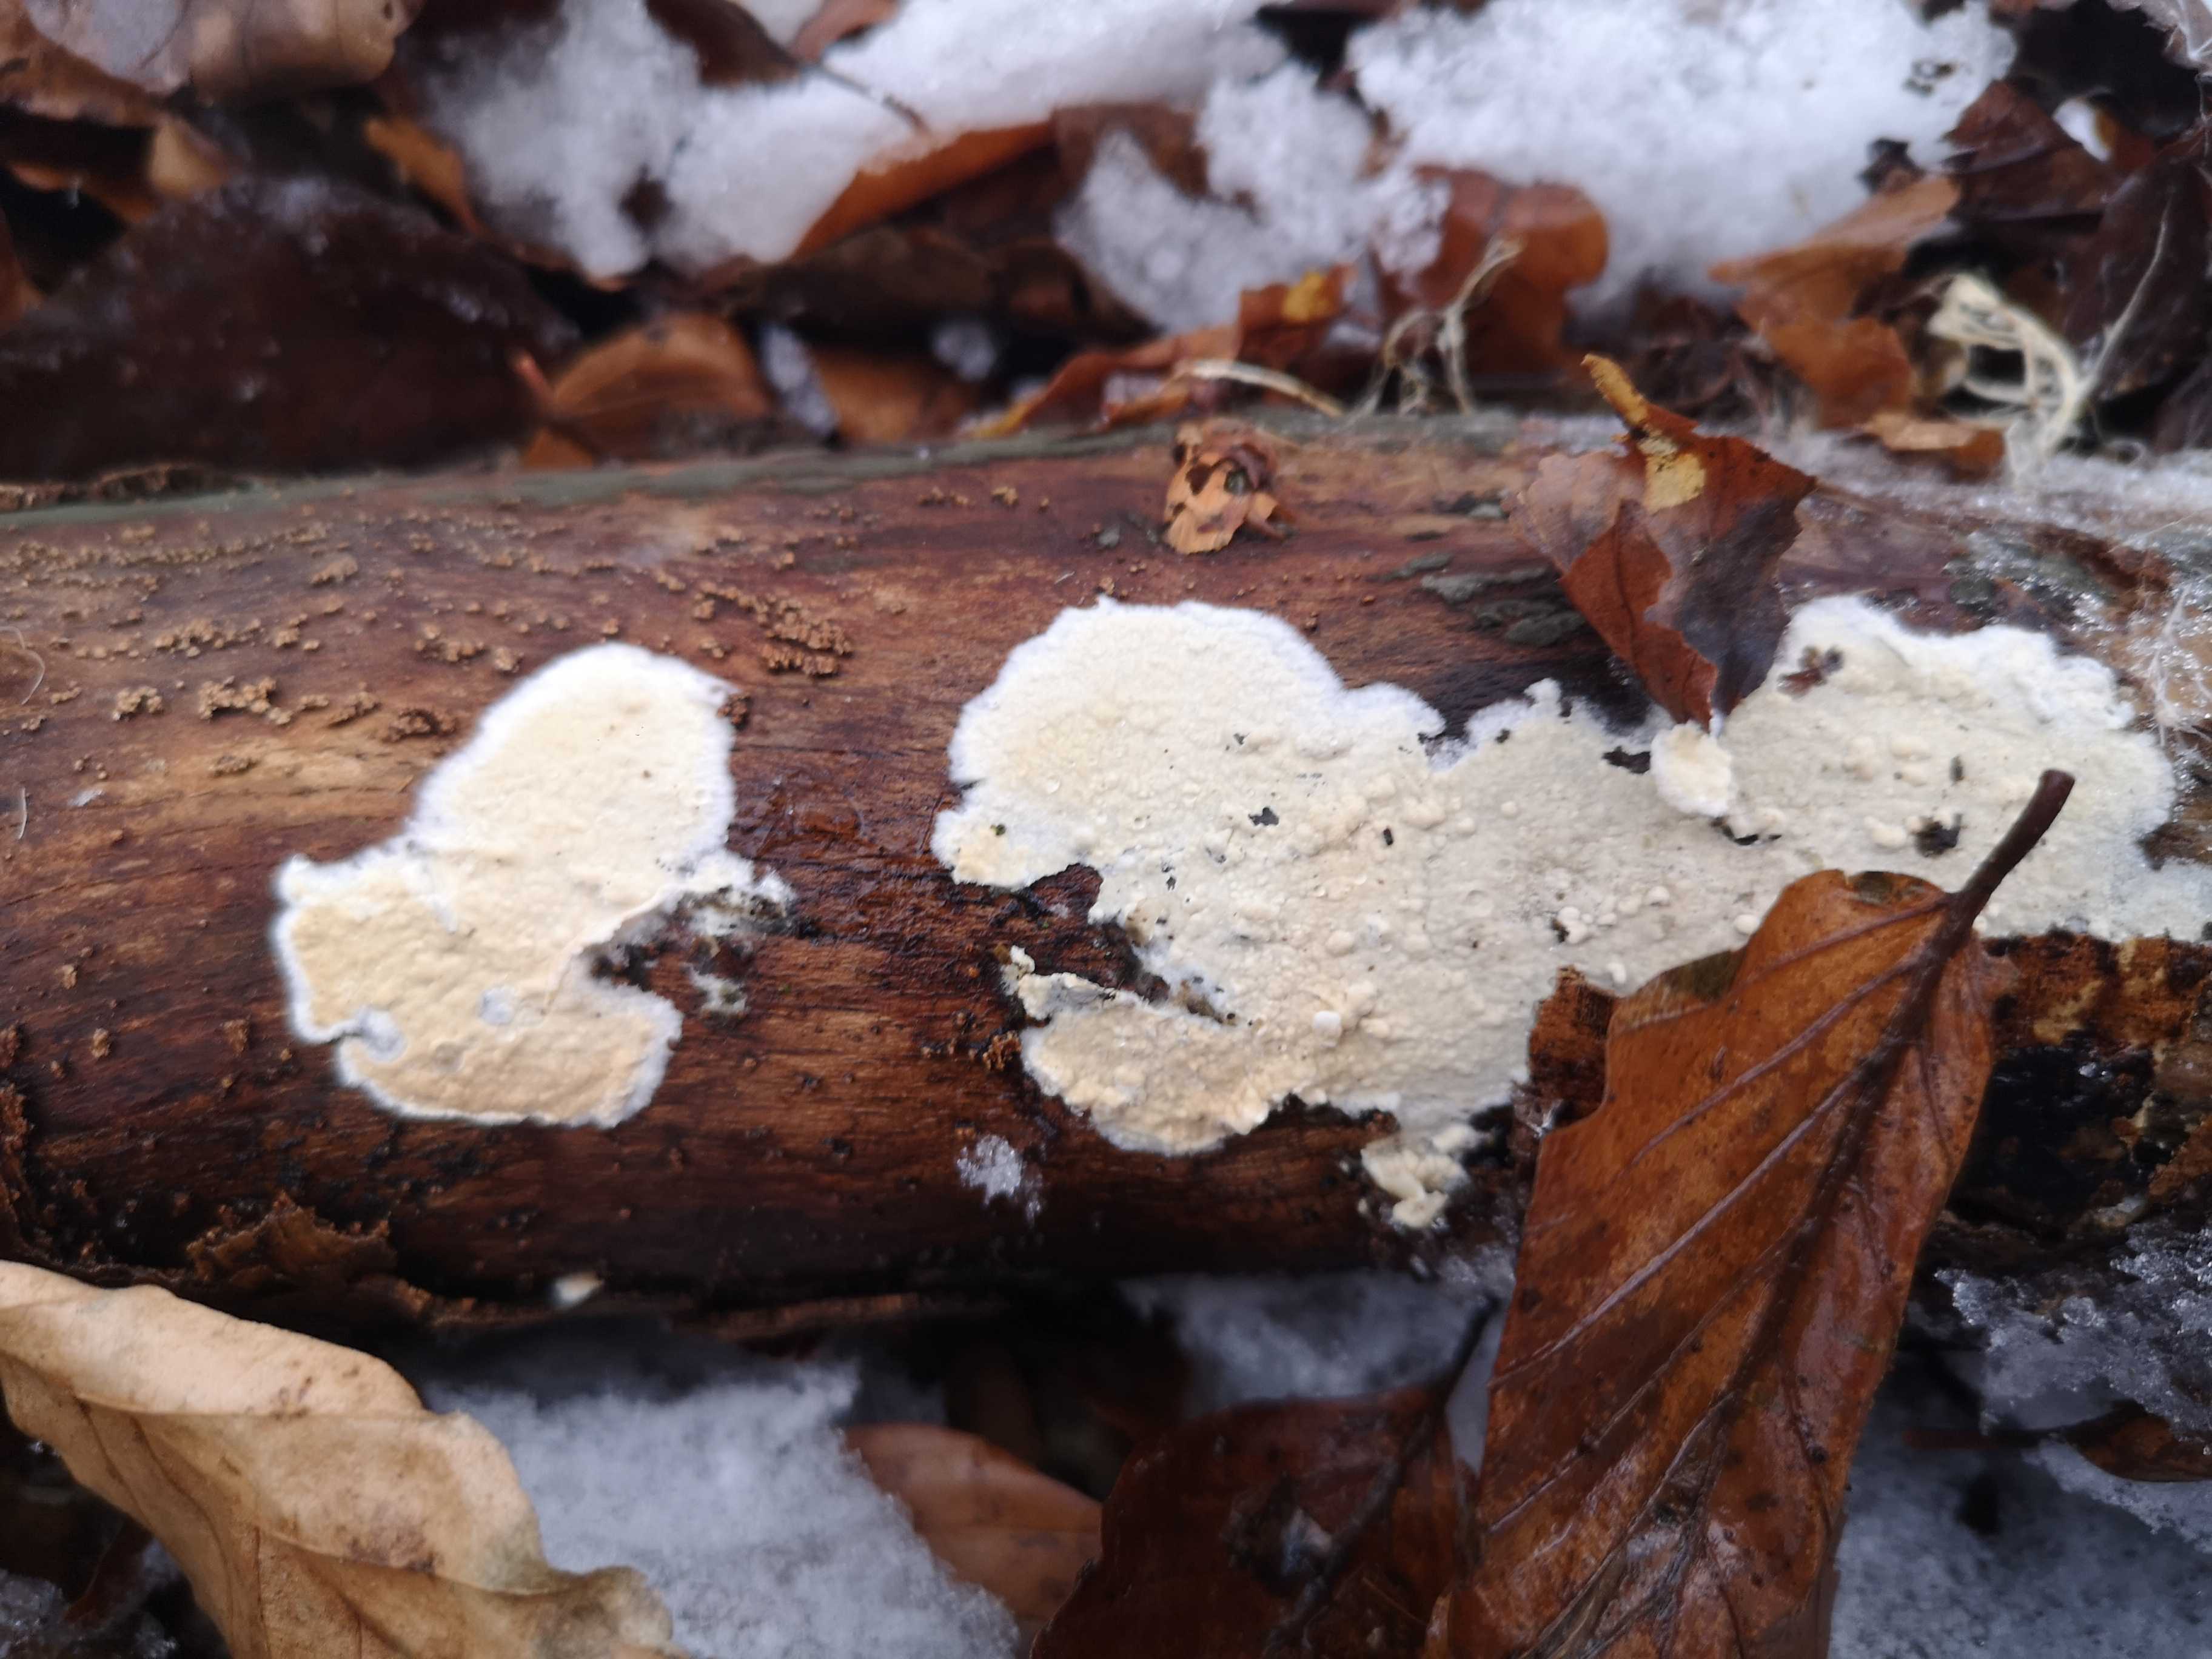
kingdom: Fungi
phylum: Basidiomycota
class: Agaricomycetes
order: Corticiales
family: Corticiaceae
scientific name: Corticiaceae
